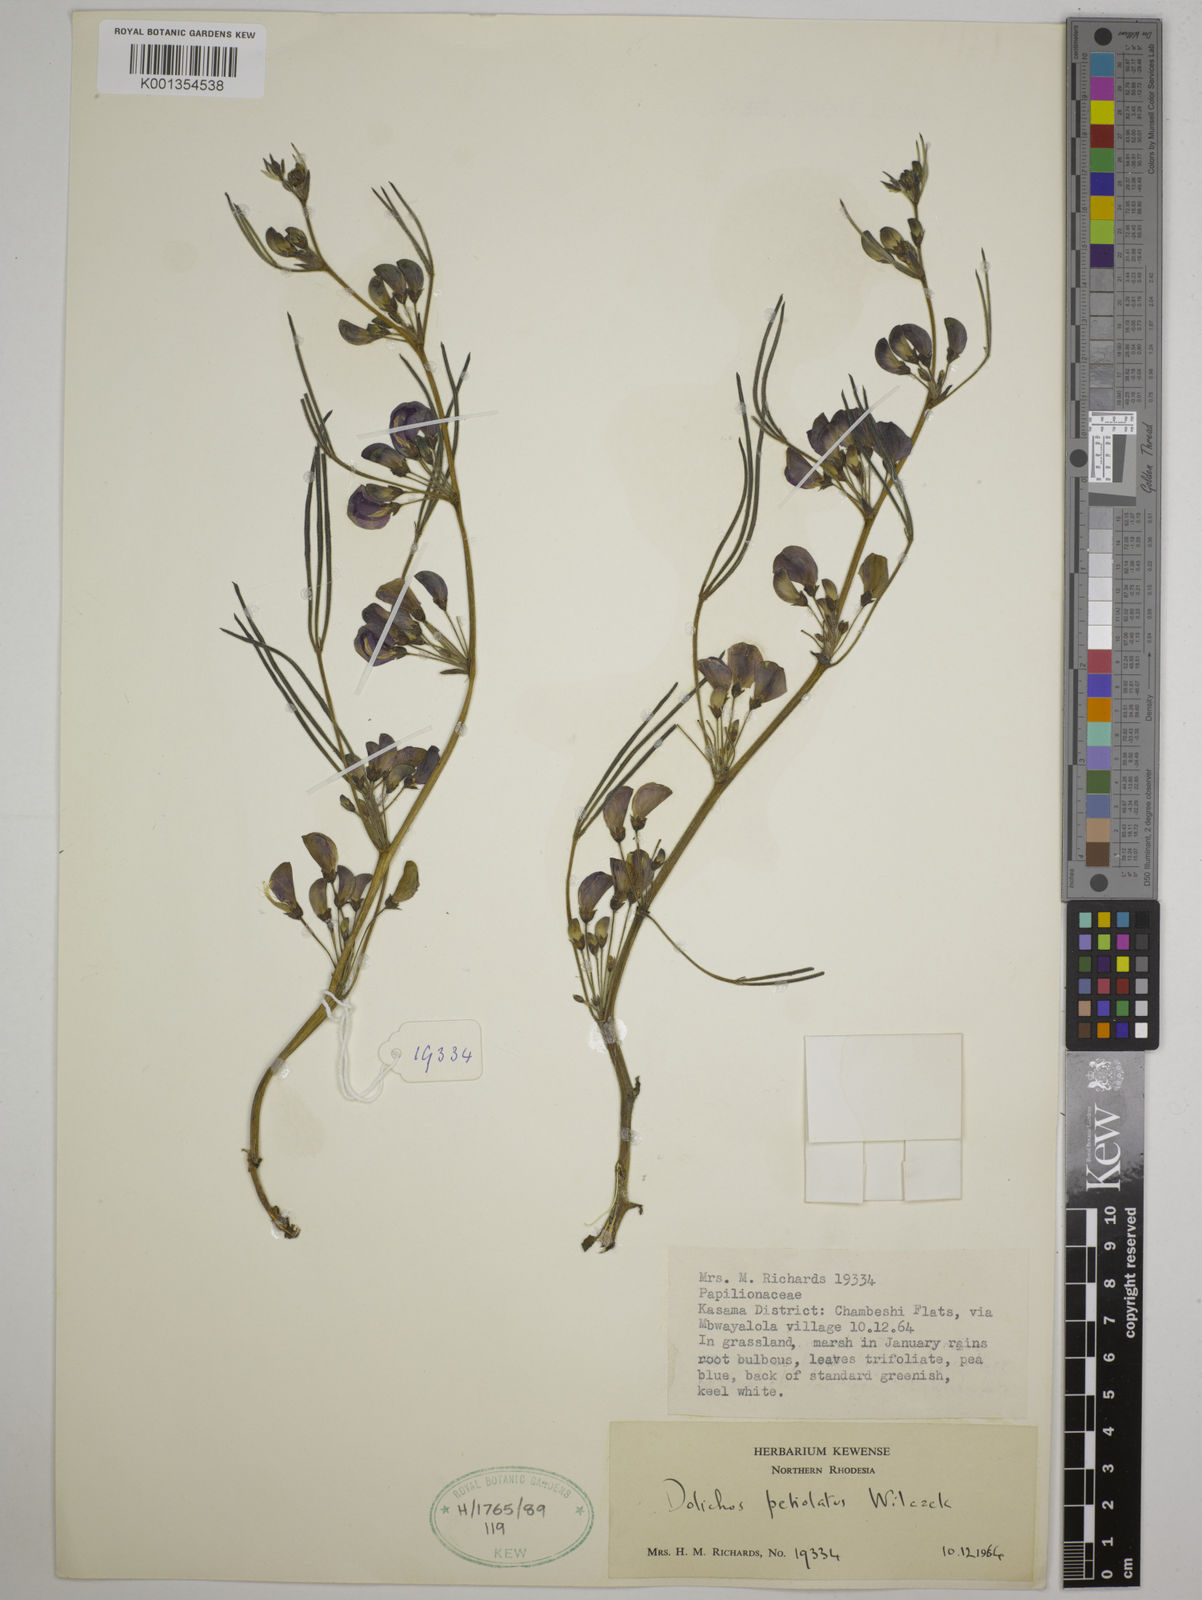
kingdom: Plantae
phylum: Tracheophyta
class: Magnoliopsida
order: Fabales
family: Fabaceae
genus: Dolichos
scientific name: Dolichos petiolatus
